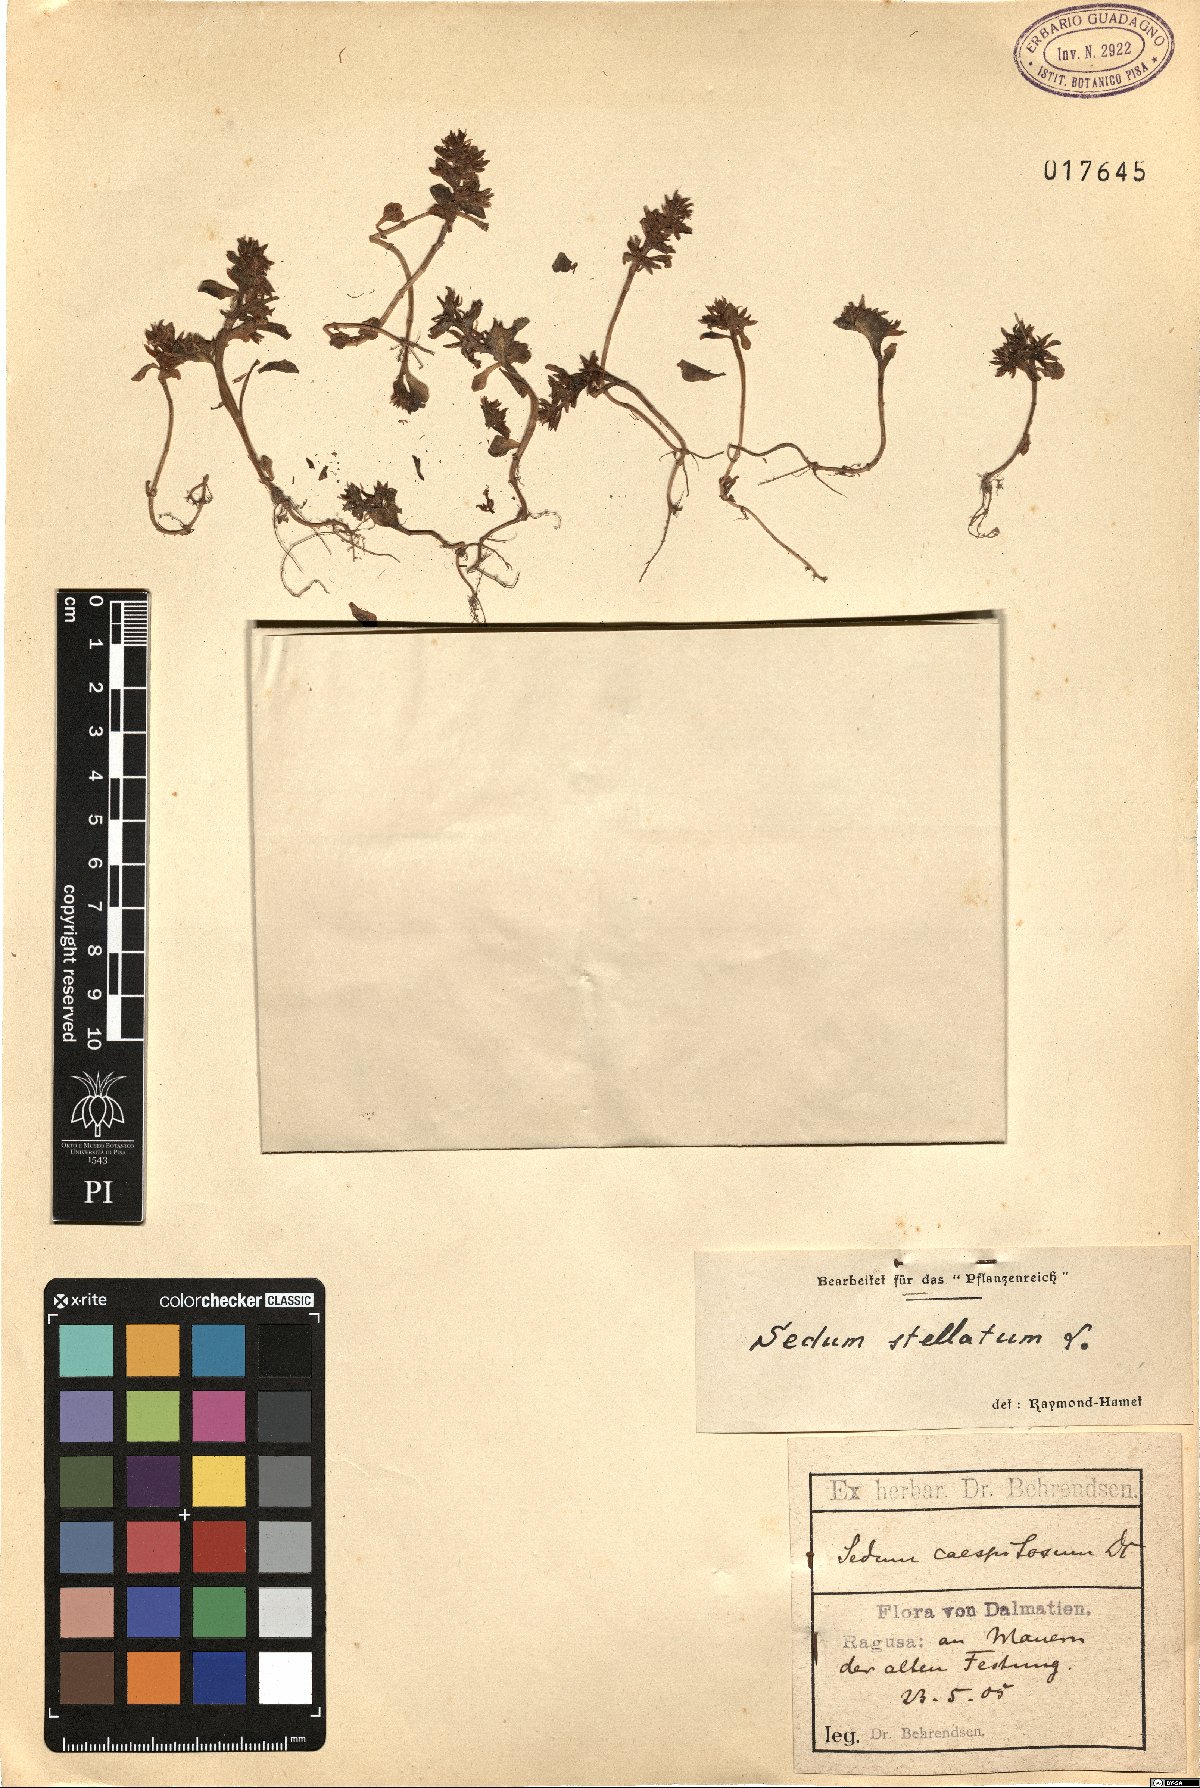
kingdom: Plantae
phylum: Tracheophyta
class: Magnoliopsida
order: Saxifragales
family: Crassulaceae
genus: Phedimus
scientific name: Phedimus stellatus
